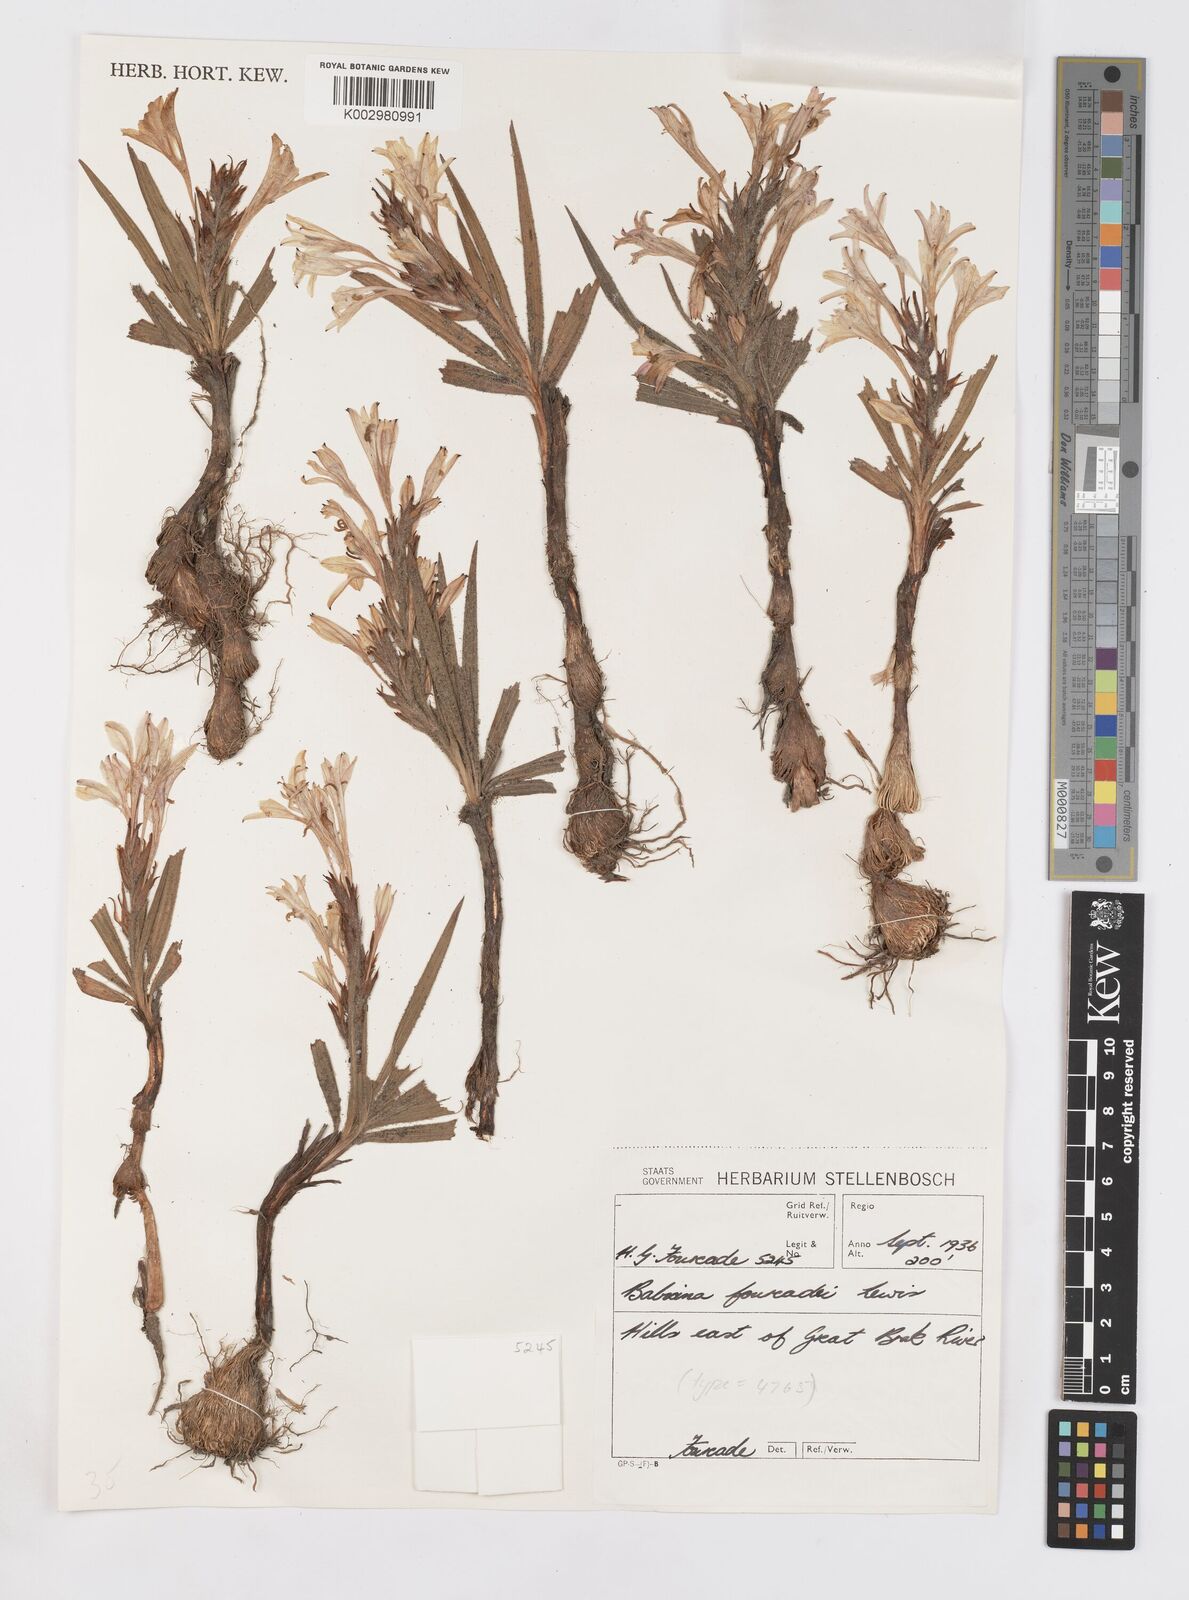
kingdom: Plantae
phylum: Tracheophyta
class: Liliopsida
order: Asparagales
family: Iridaceae
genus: Babiana
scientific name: Babiana fourcadei
